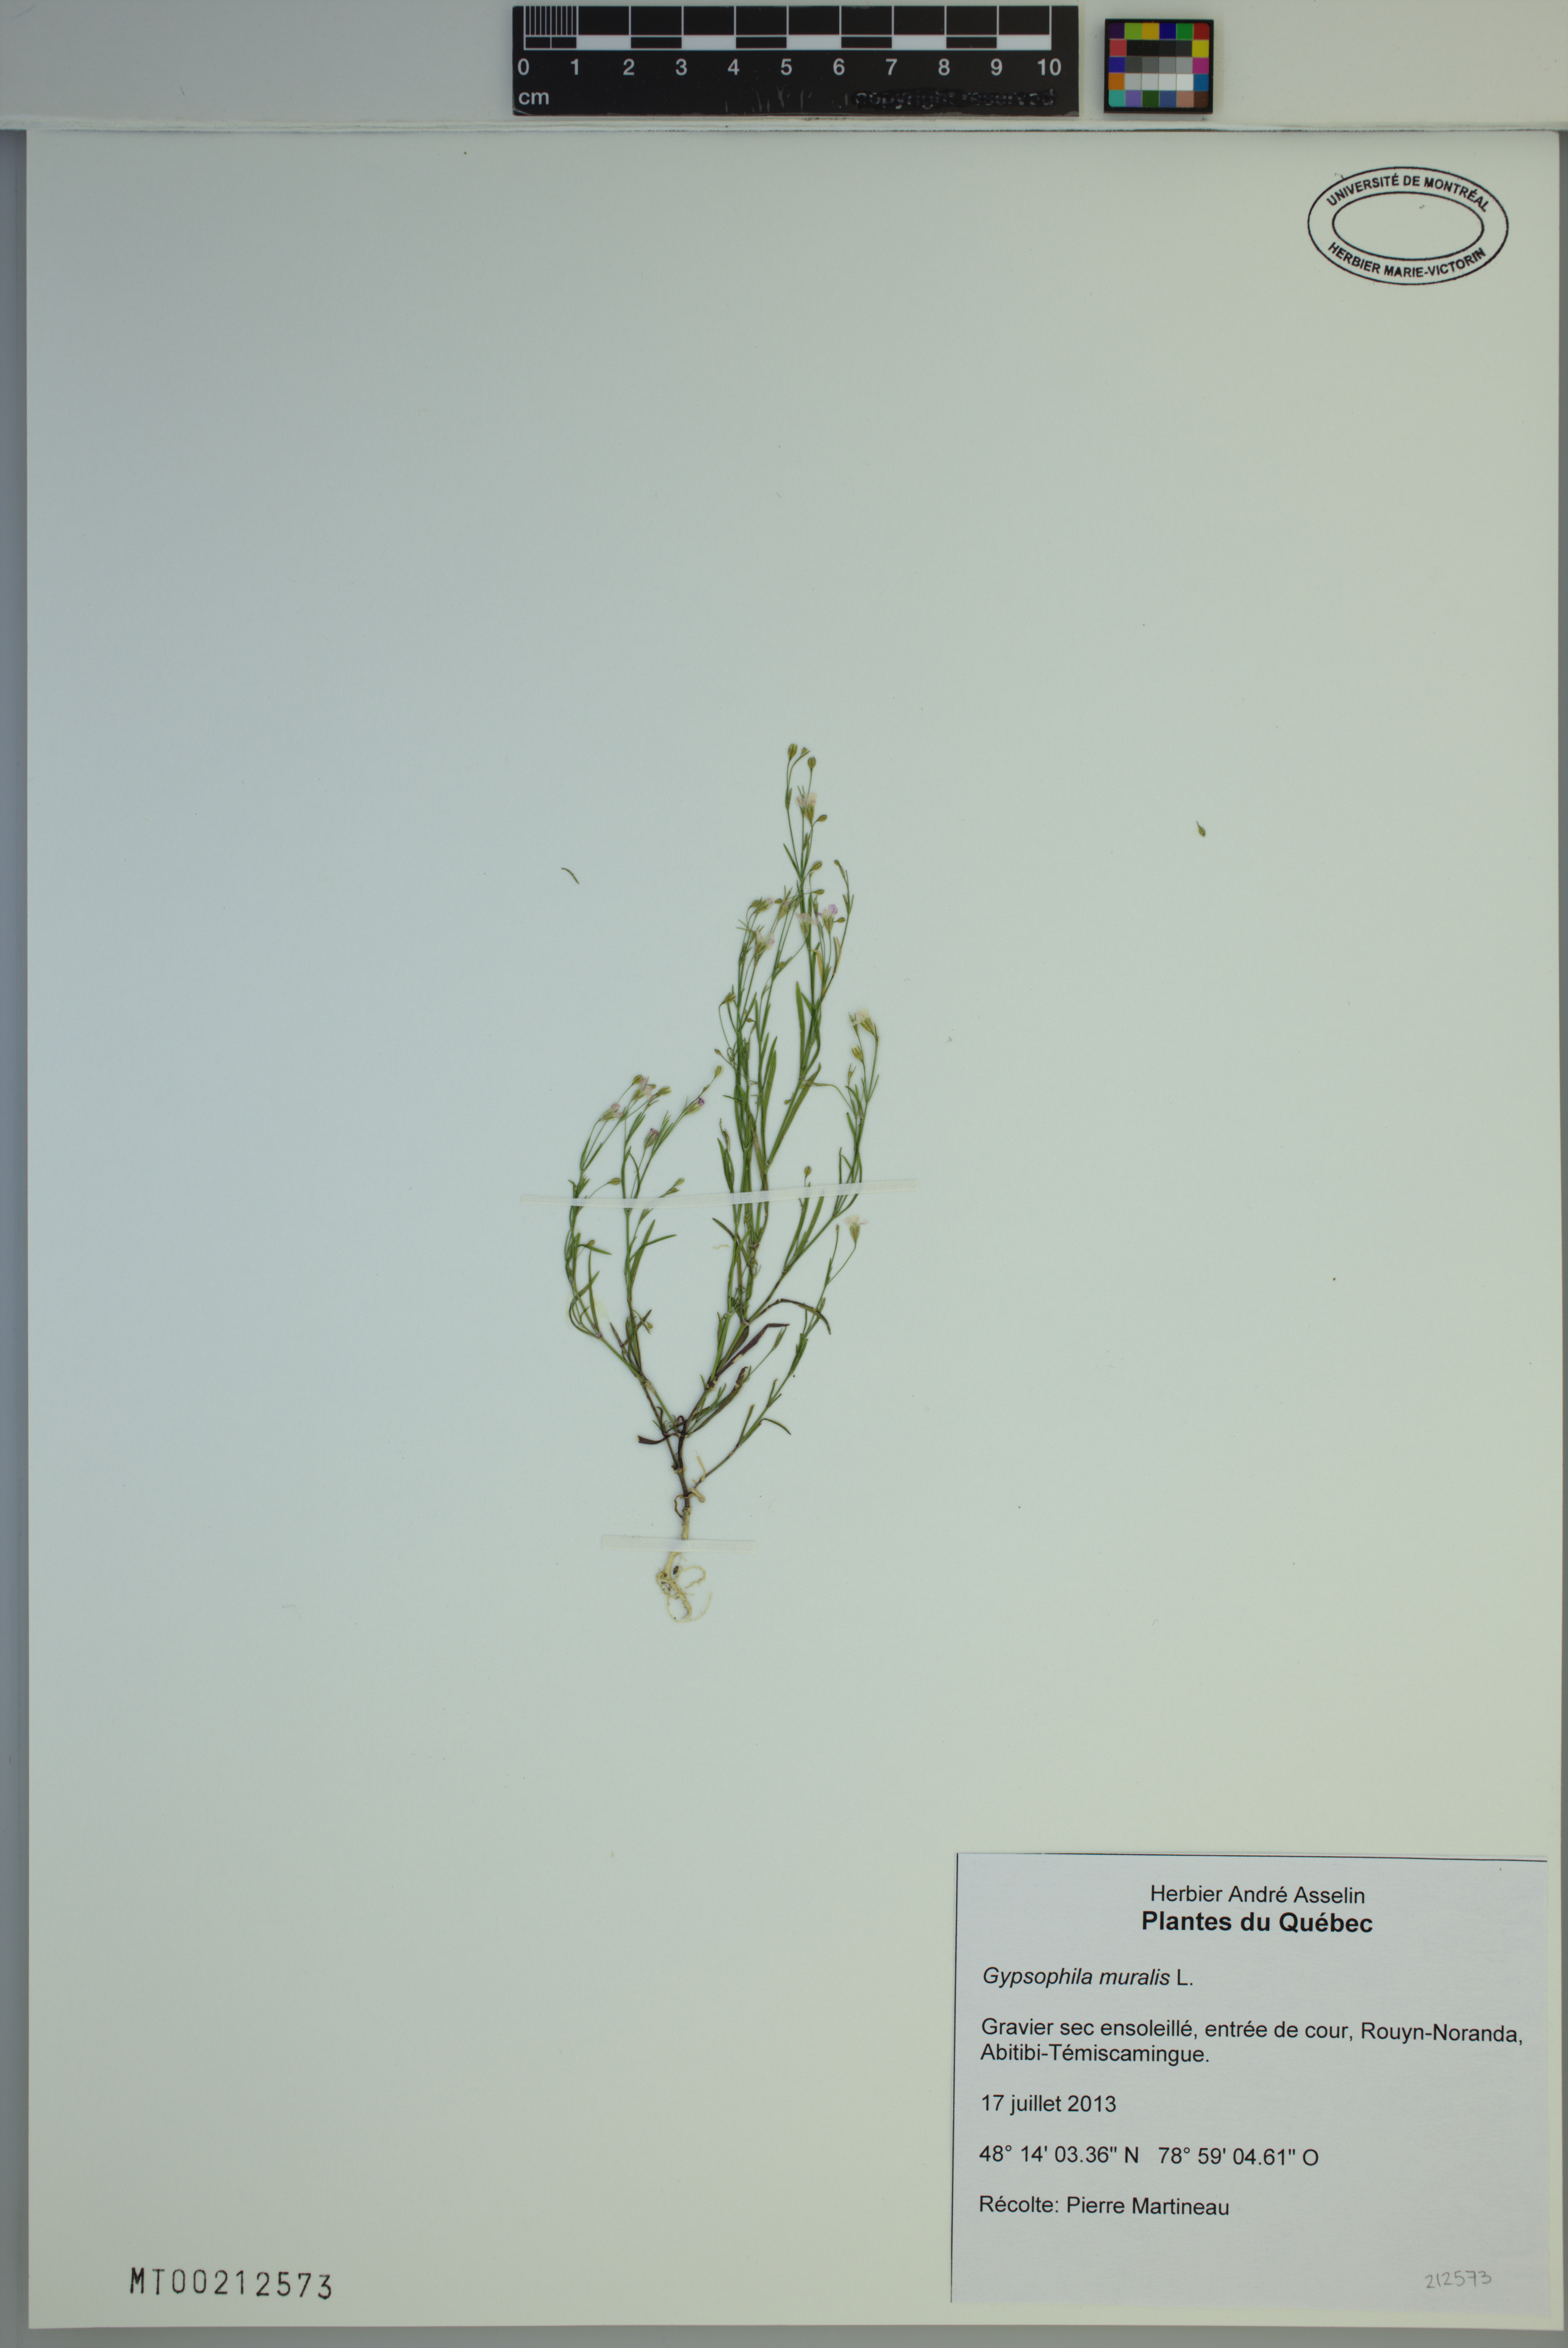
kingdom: Plantae
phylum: Tracheophyta
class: Magnoliopsida
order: Caryophyllales
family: Caryophyllaceae
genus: Psammophiliella
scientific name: Psammophiliella muralis
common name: Cushion baby's-breath
